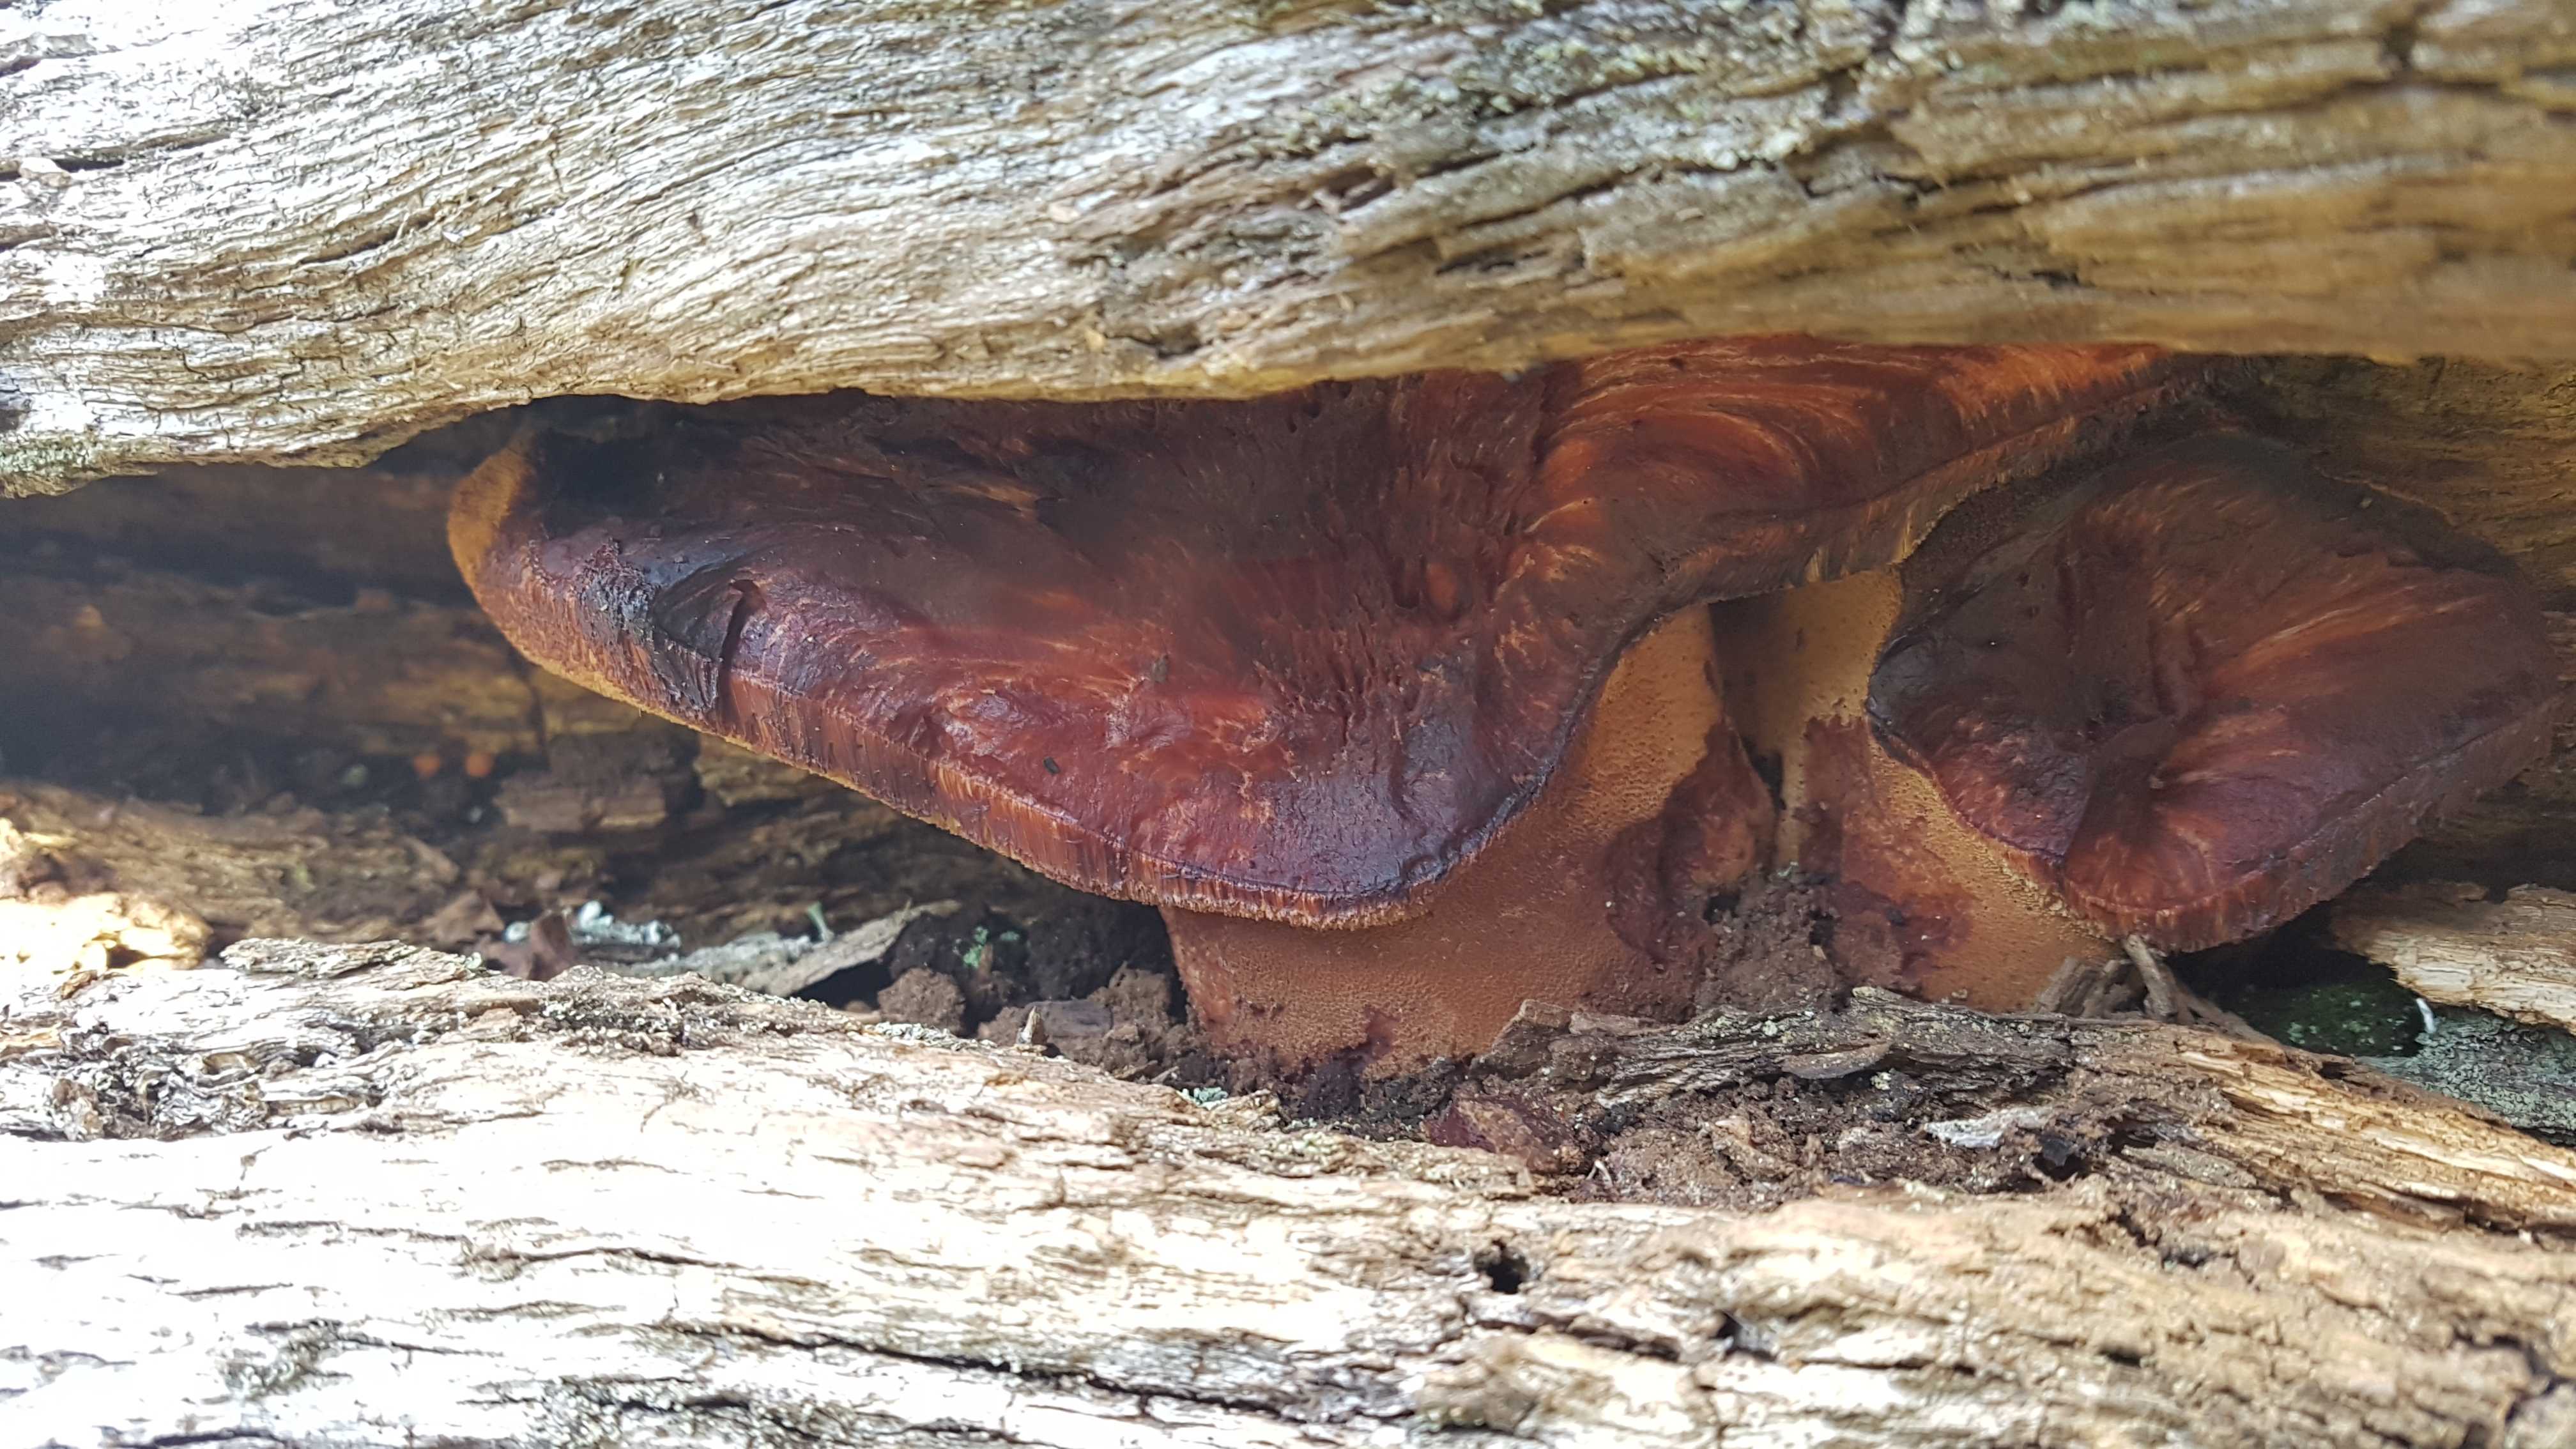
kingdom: Fungi
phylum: Basidiomycota
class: Agaricomycetes
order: Agaricales
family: Fistulinaceae
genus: Fistulina
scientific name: Fistulina hepatica
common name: oksetunge
